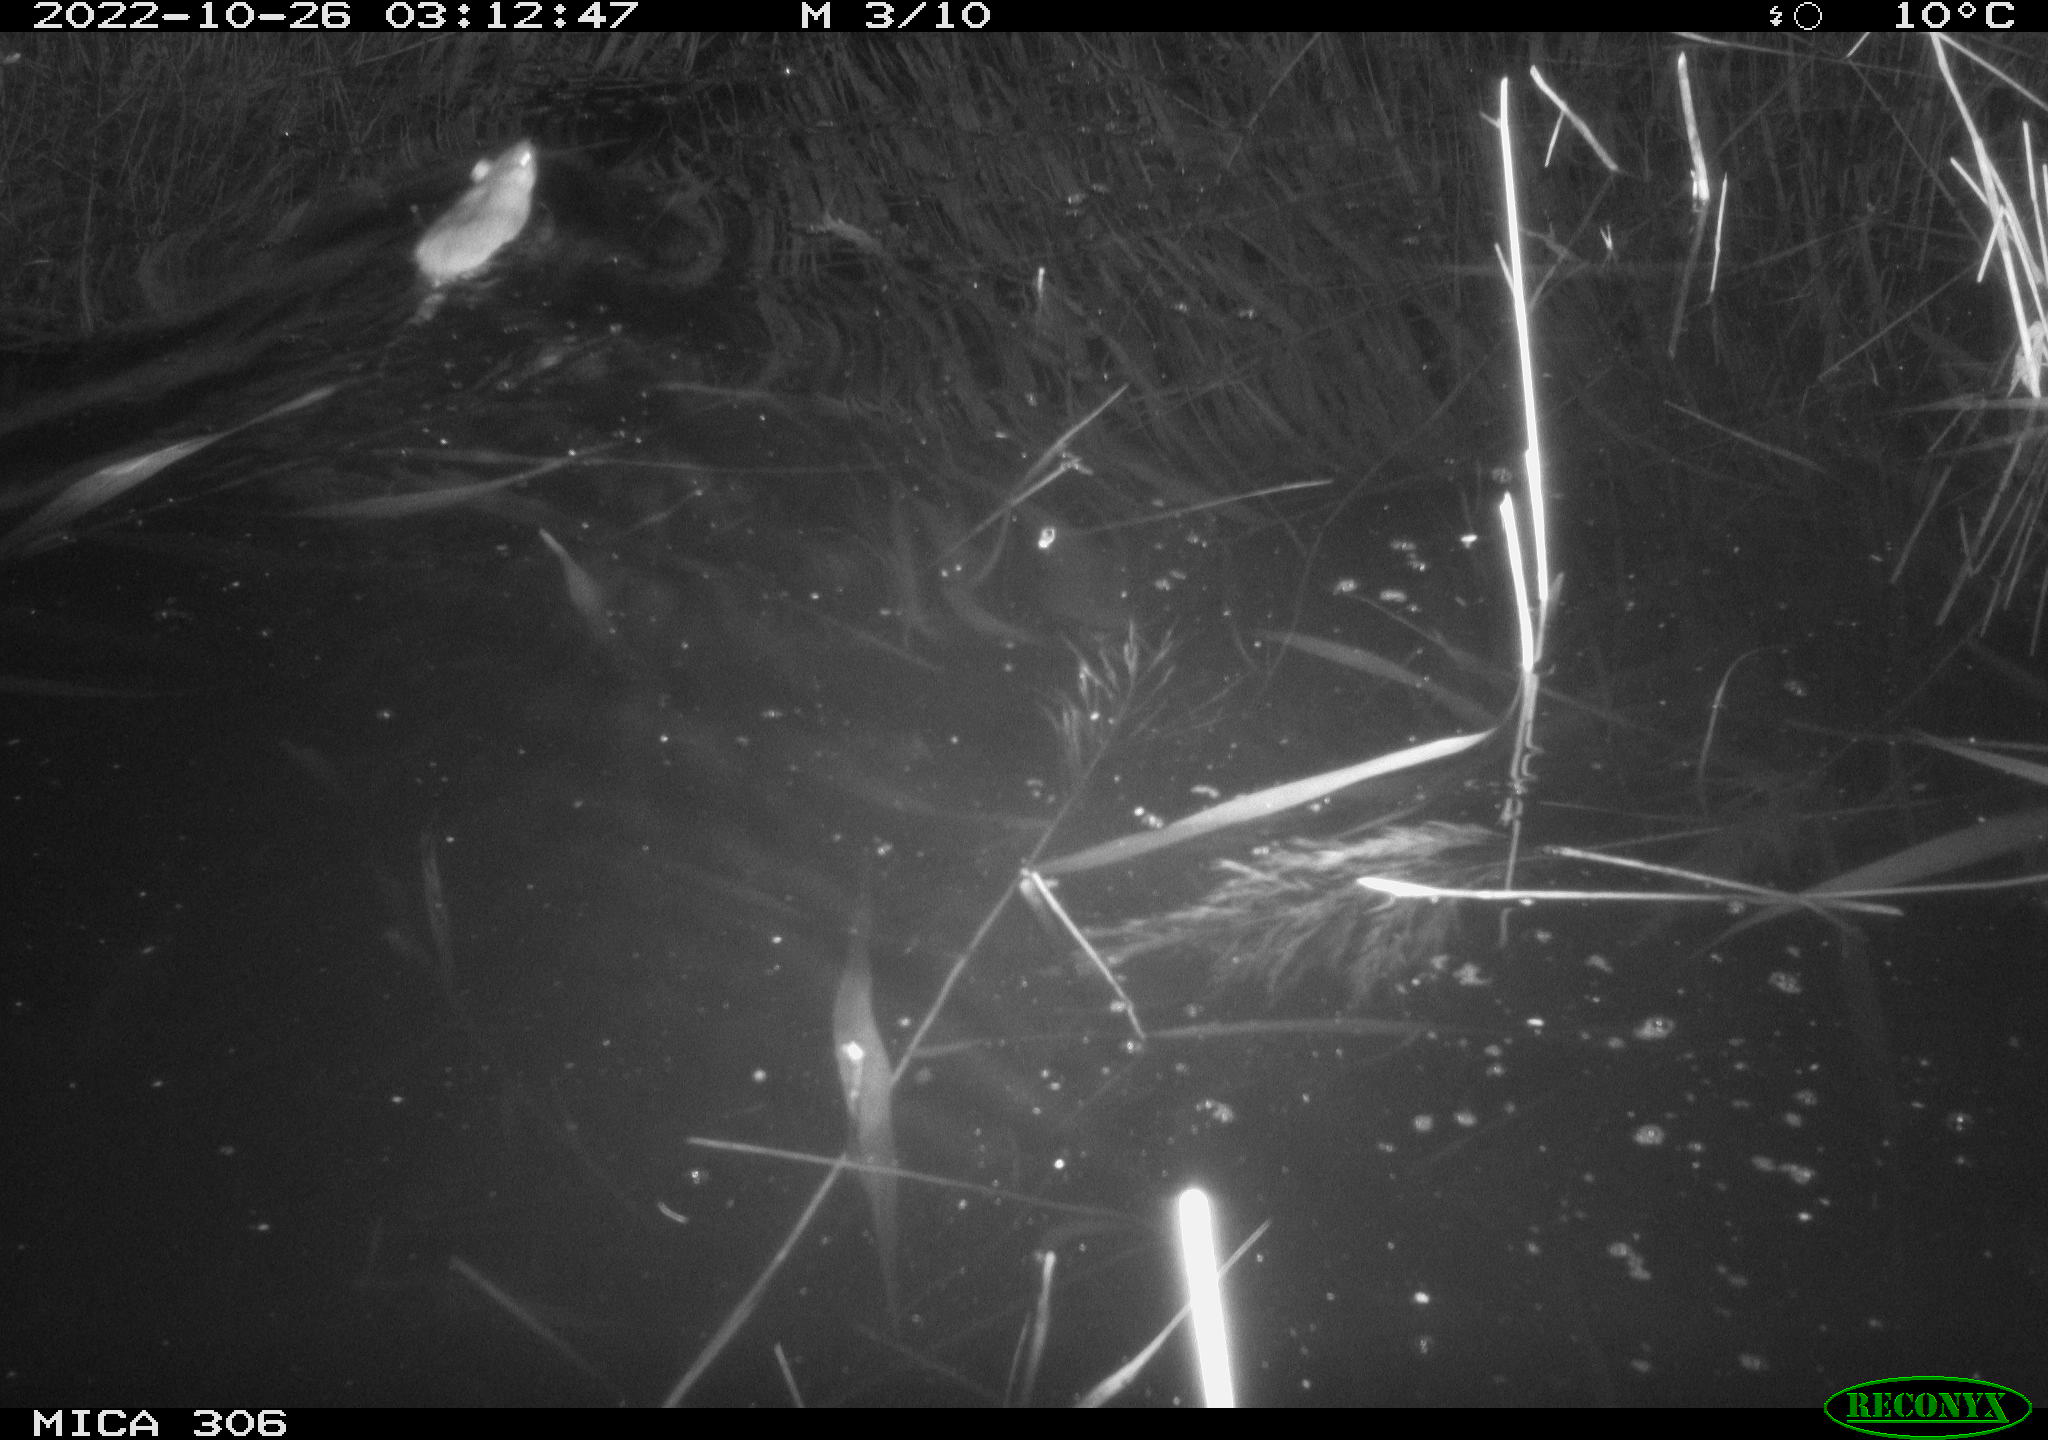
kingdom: Animalia
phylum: Chordata
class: Mammalia
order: Rodentia
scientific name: Rodentia
